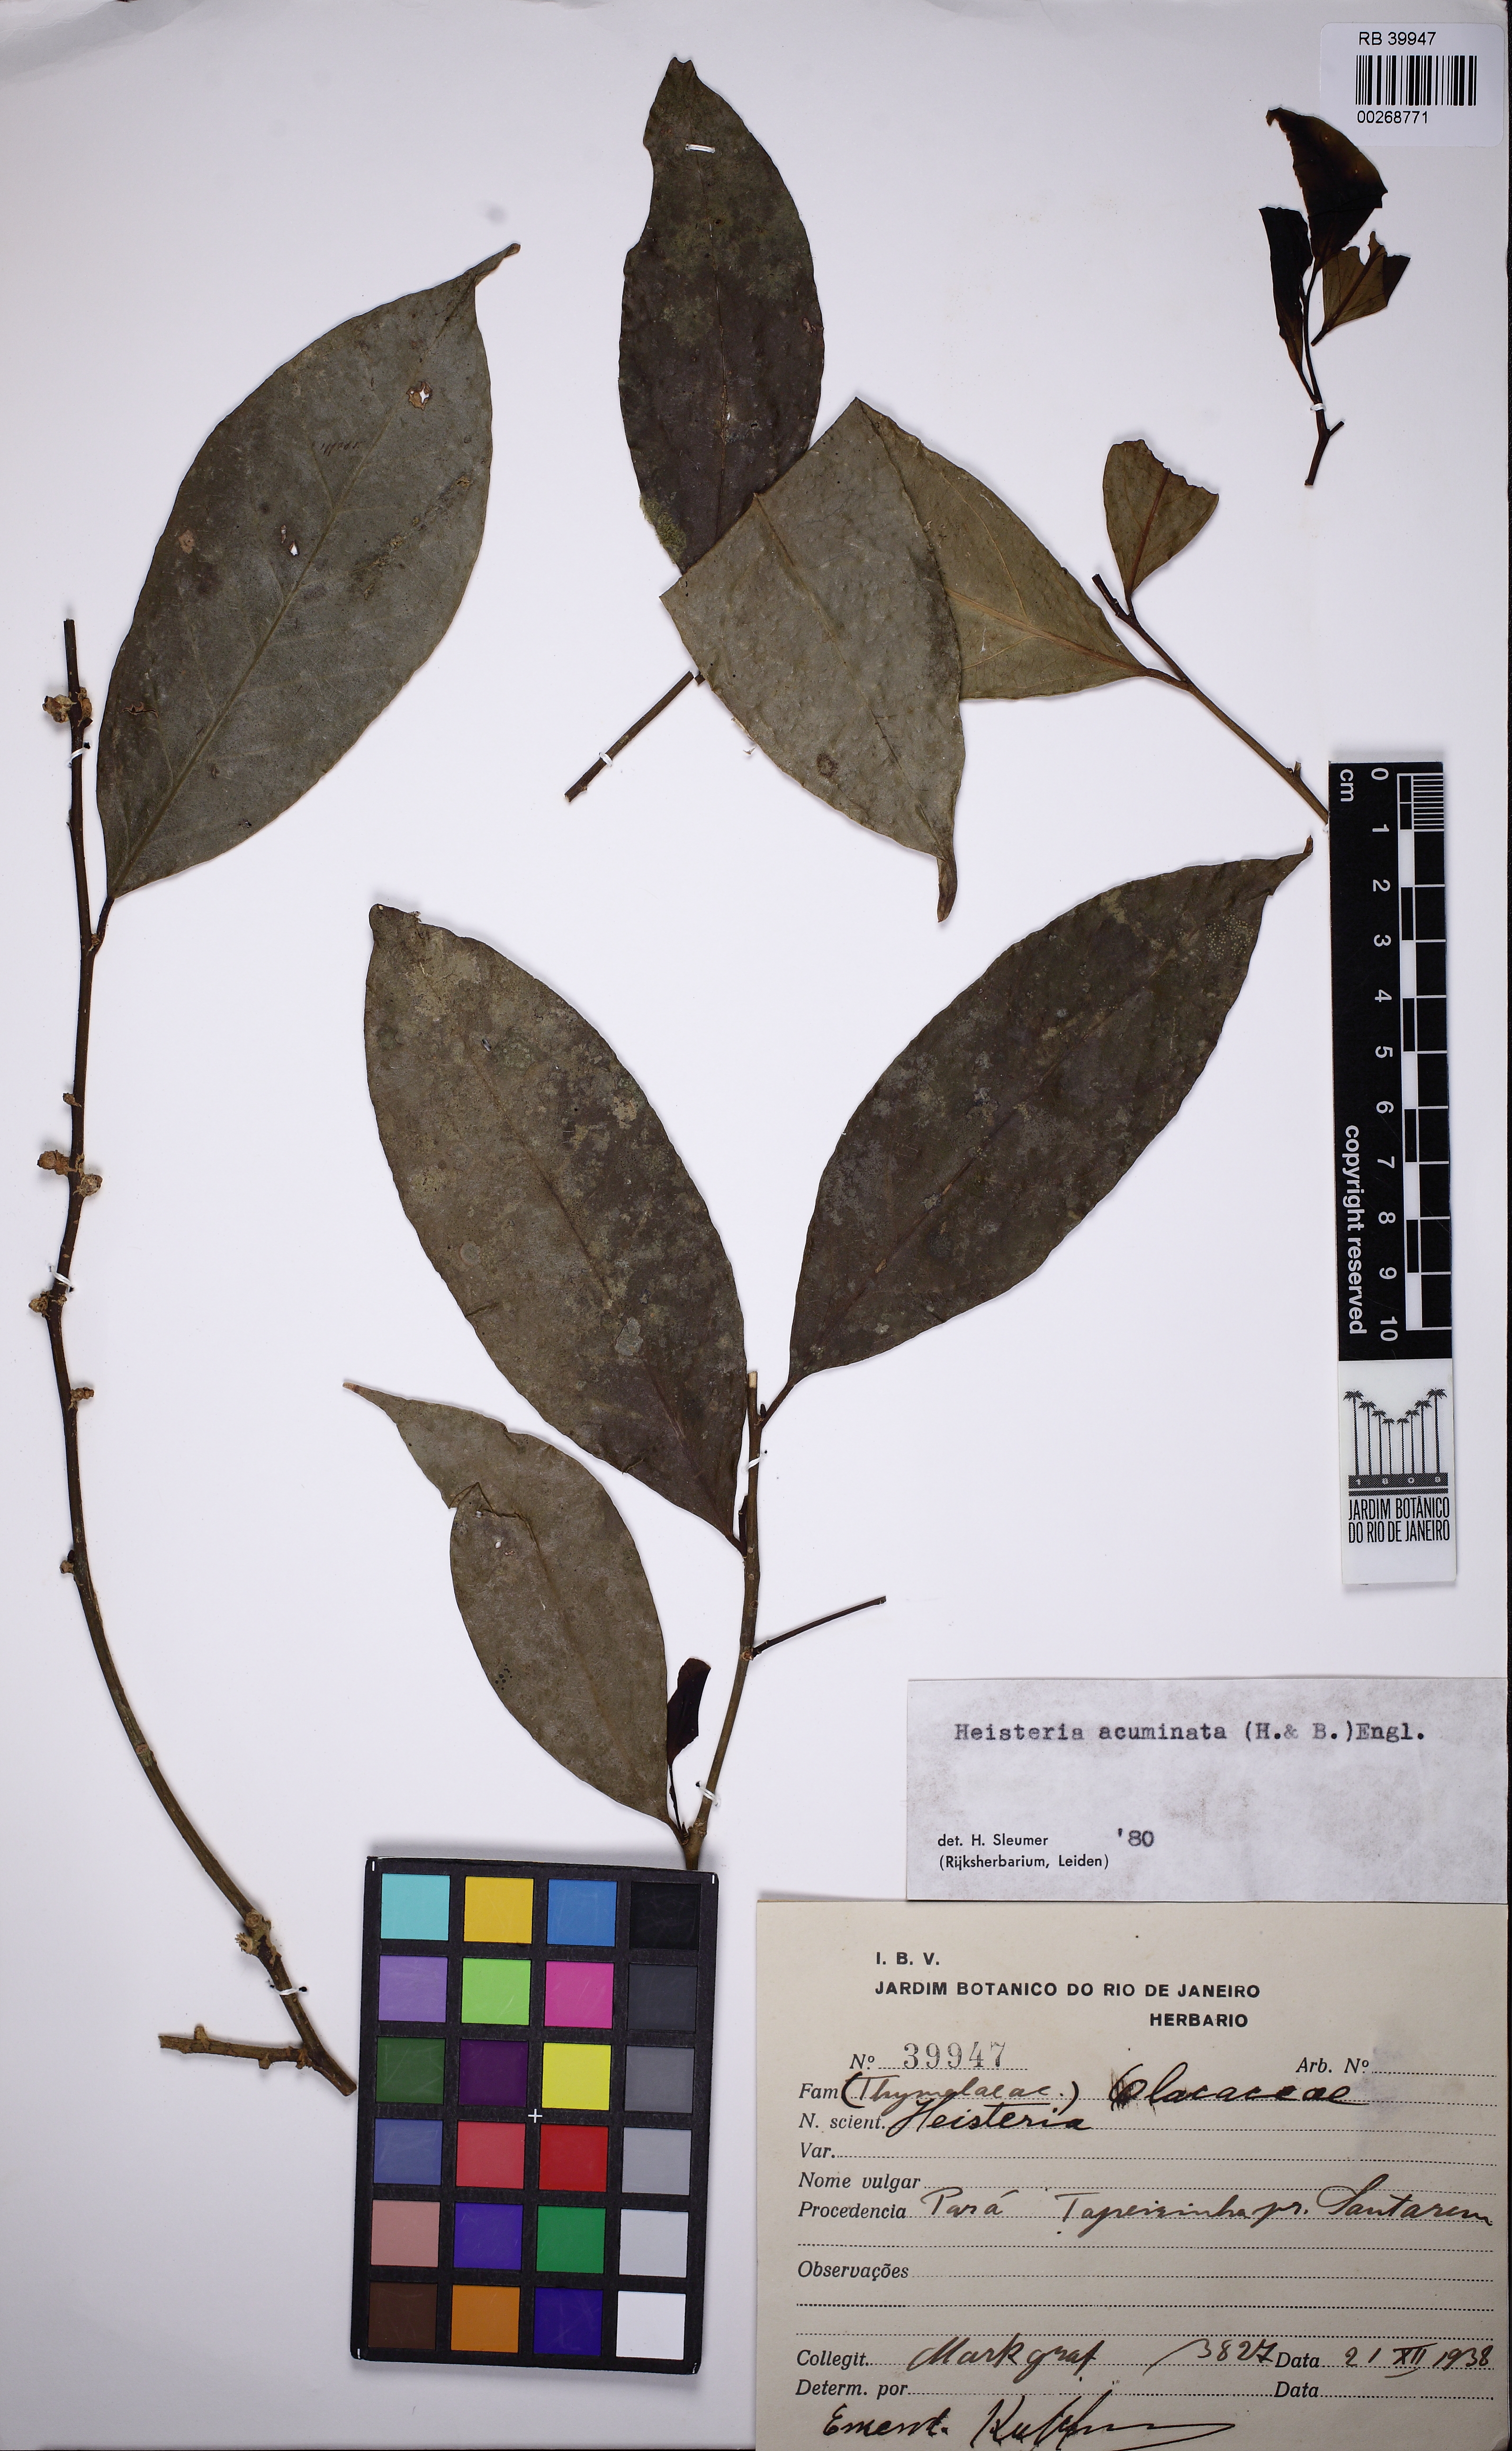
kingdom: Plantae
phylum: Tracheophyta
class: Magnoliopsida
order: Santalales
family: Erythropalaceae
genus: Heisteria
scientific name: Heisteria acuminata
